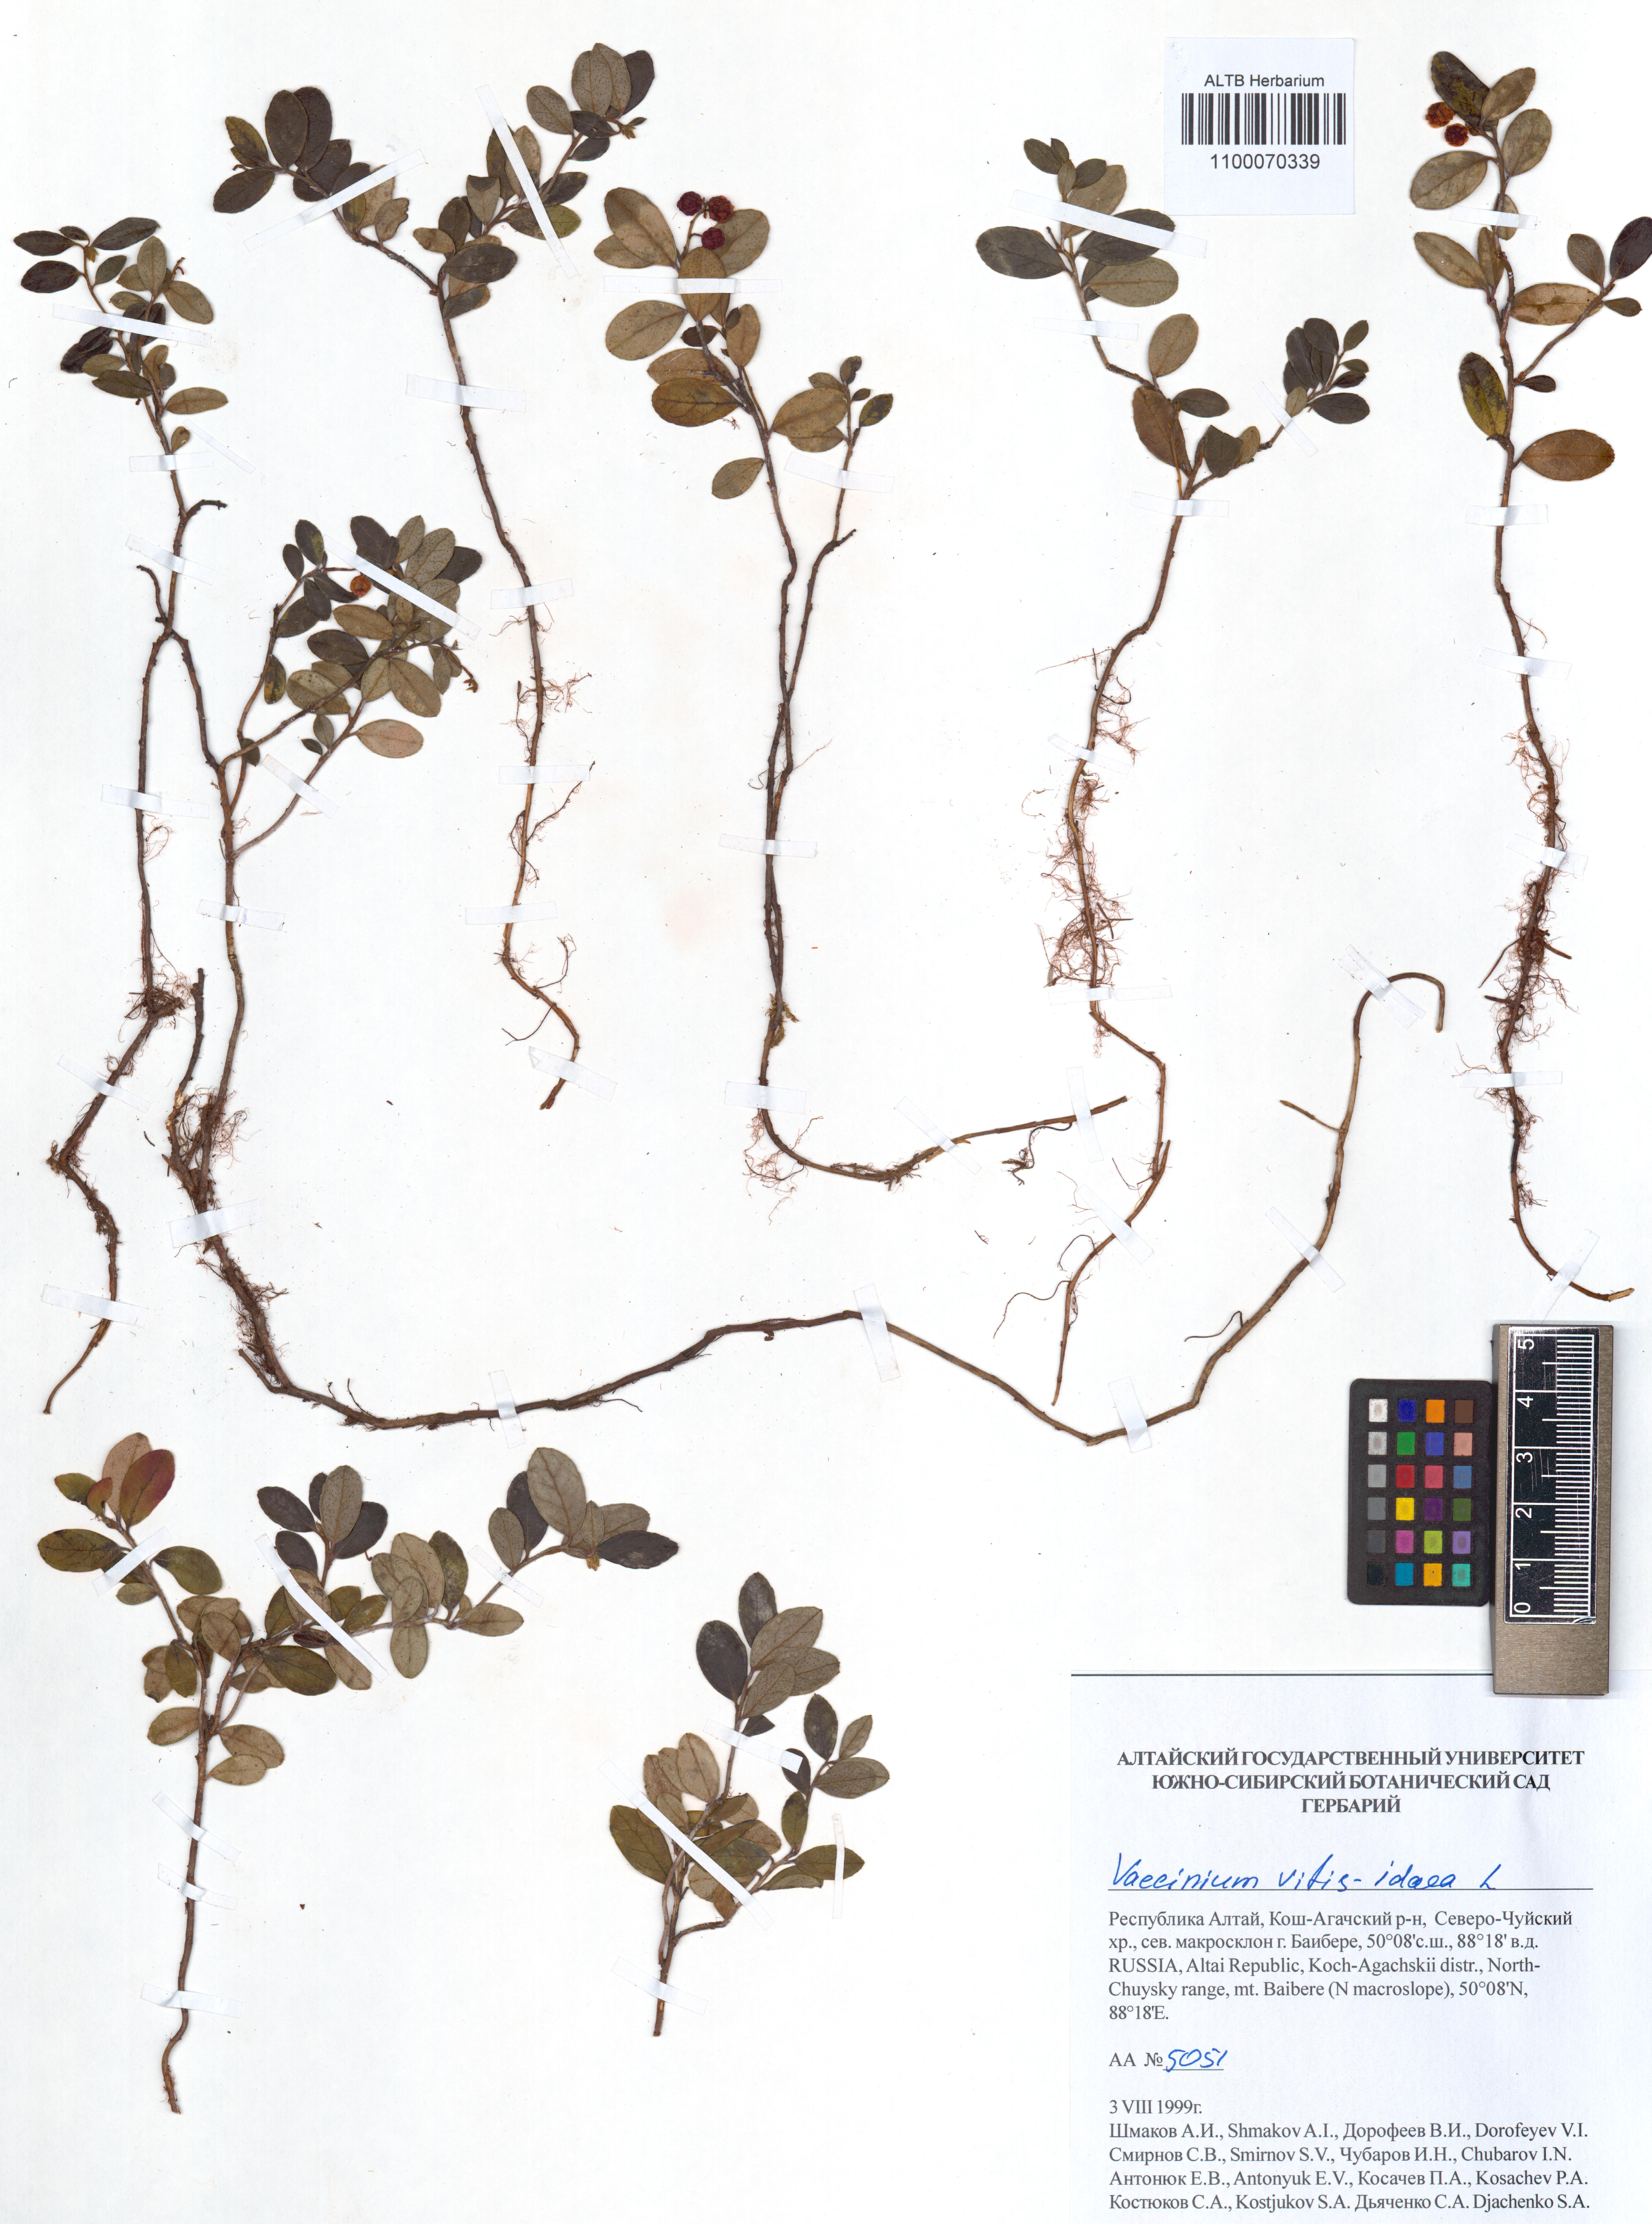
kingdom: Plantae
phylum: Tracheophyta
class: Magnoliopsida
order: Ericales
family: Ericaceae
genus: Vaccinium
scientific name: Vaccinium vitis-idaea
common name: Cowberry
